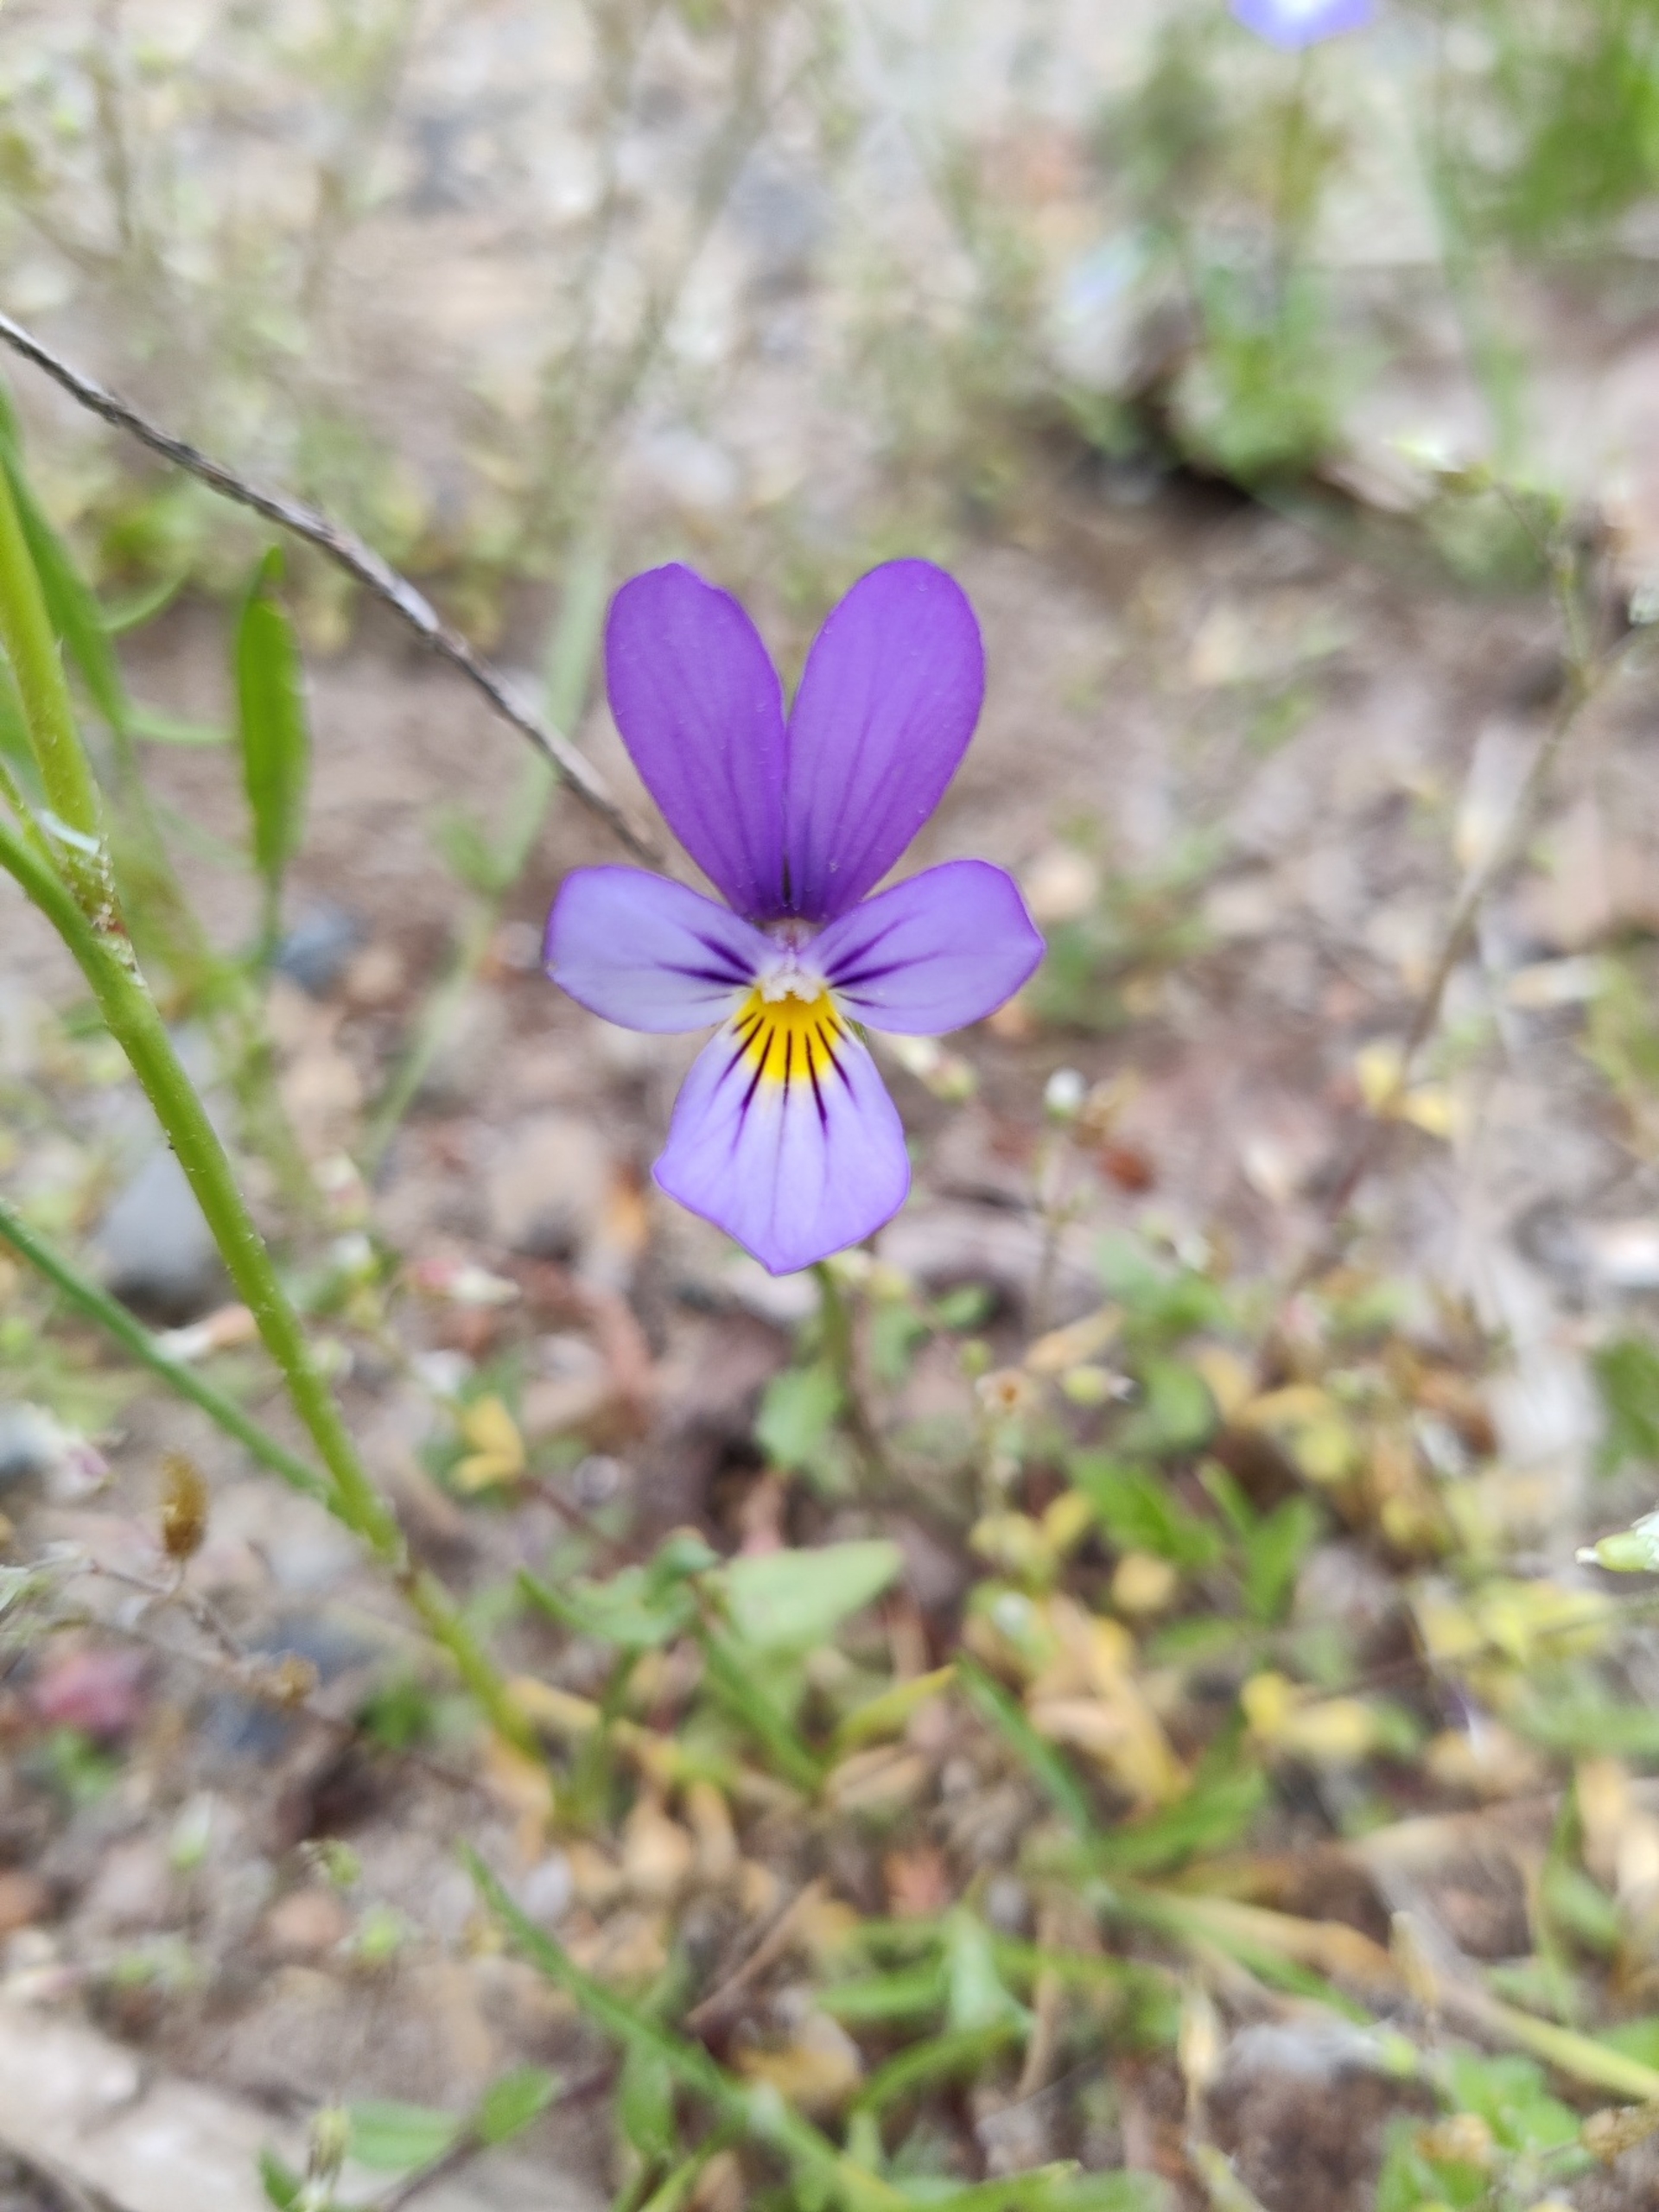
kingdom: Plantae
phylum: Tracheophyta
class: Magnoliopsida
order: Malpighiales
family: Violaceae
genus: Viola
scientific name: Viola tricolor
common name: Stedmoderblomst
